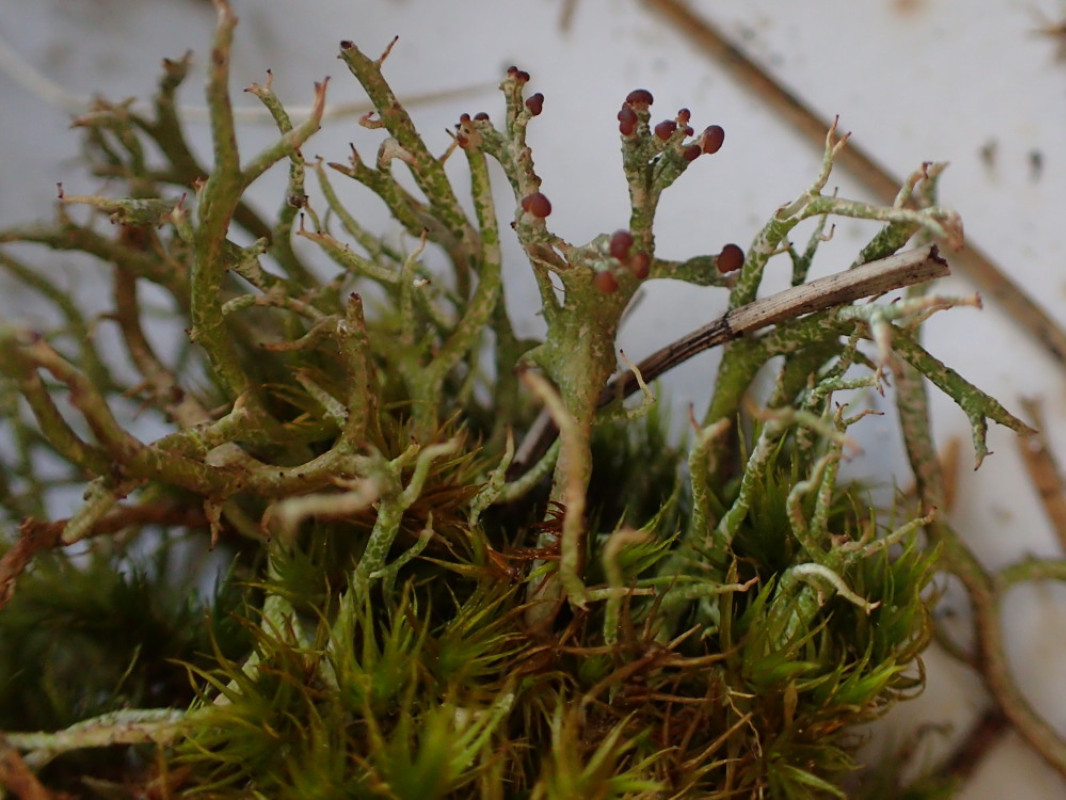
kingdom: Fungi
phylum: Ascomycota
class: Lecanoromycetes
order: Lecanorales
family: Cladoniaceae
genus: Cladonia
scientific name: Cladonia rangiformis
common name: spættet bægerlav
